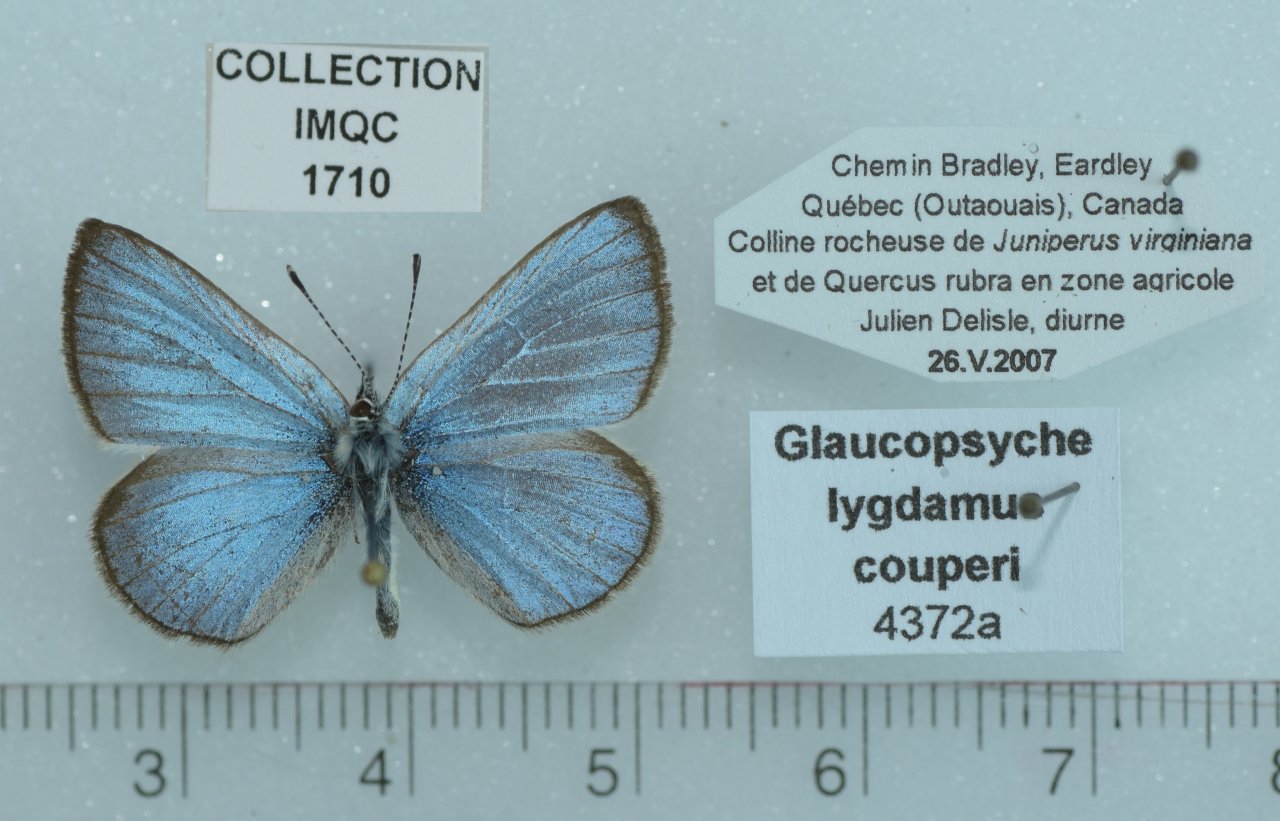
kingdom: Animalia
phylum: Arthropoda
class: Insecta
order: Lepidoptera
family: Lycaenidae
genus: Glaucopsyche
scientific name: Glaucopsyche lygdamus
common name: Silvery Blue
